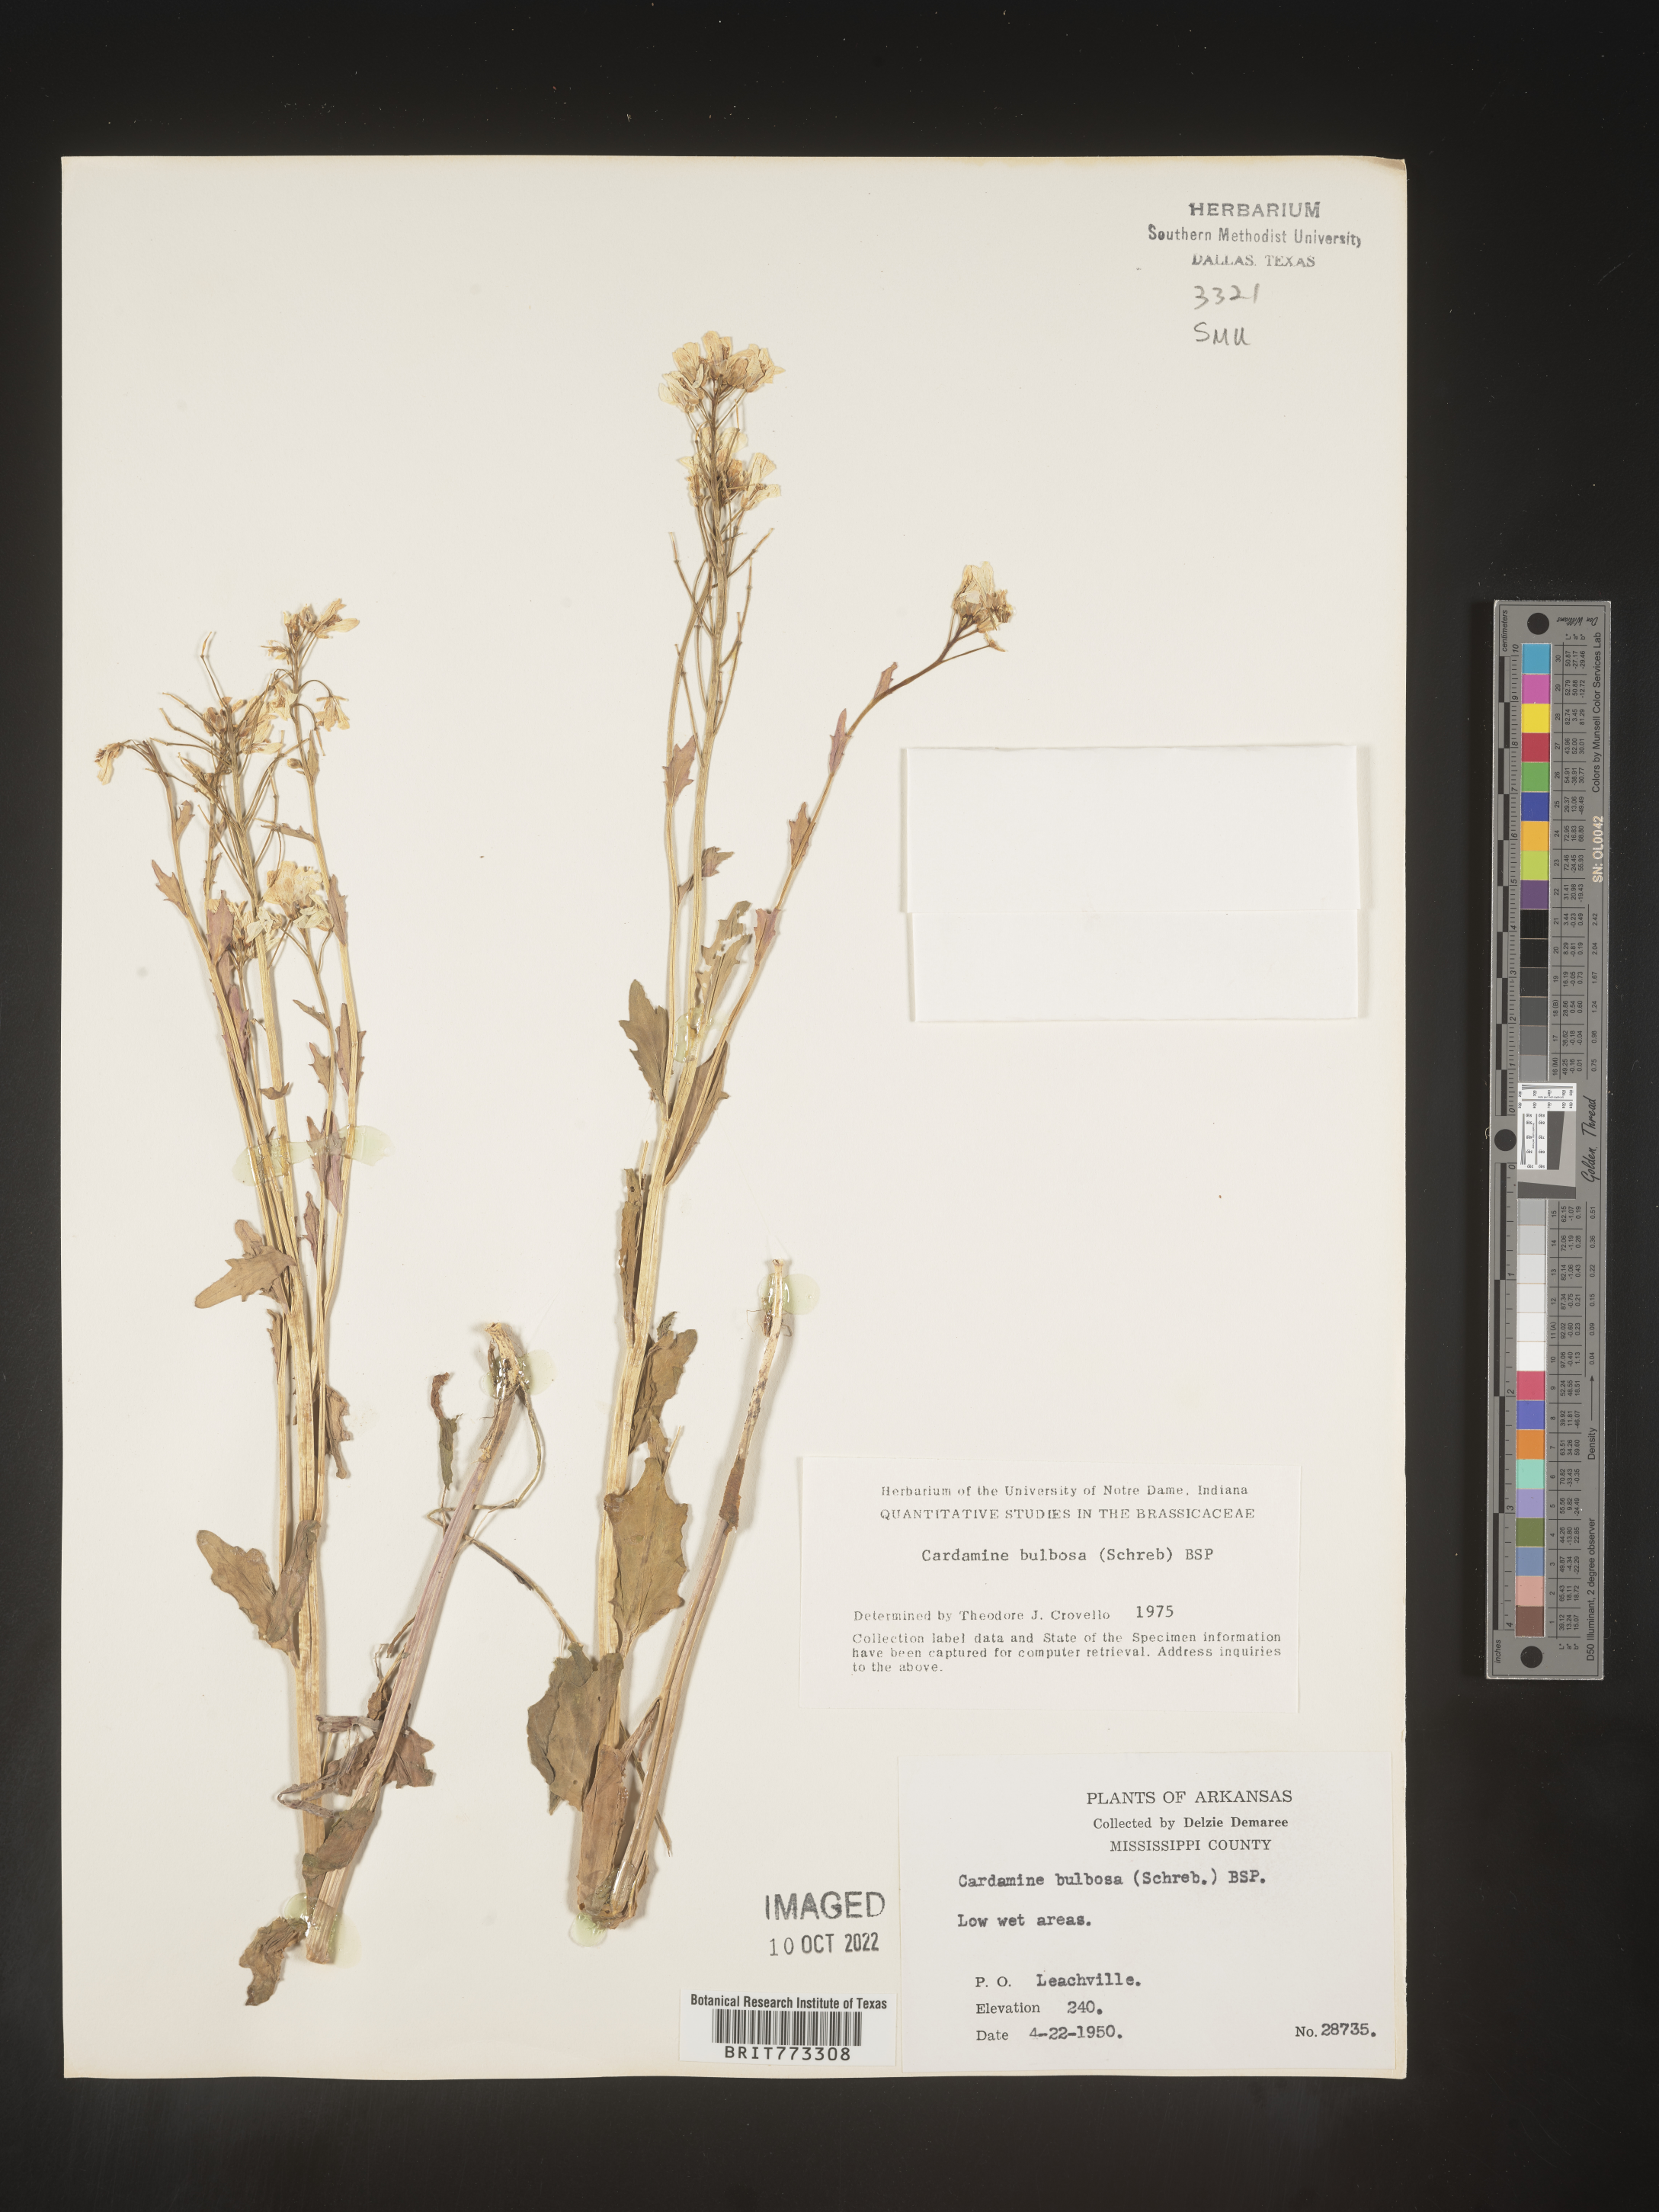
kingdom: Plantae
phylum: Tracheophyta
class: Magnoliopsida
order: Brassicales
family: Brassicaceae
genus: Cardamine
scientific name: Cardamine bulbosa
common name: Spring cress
